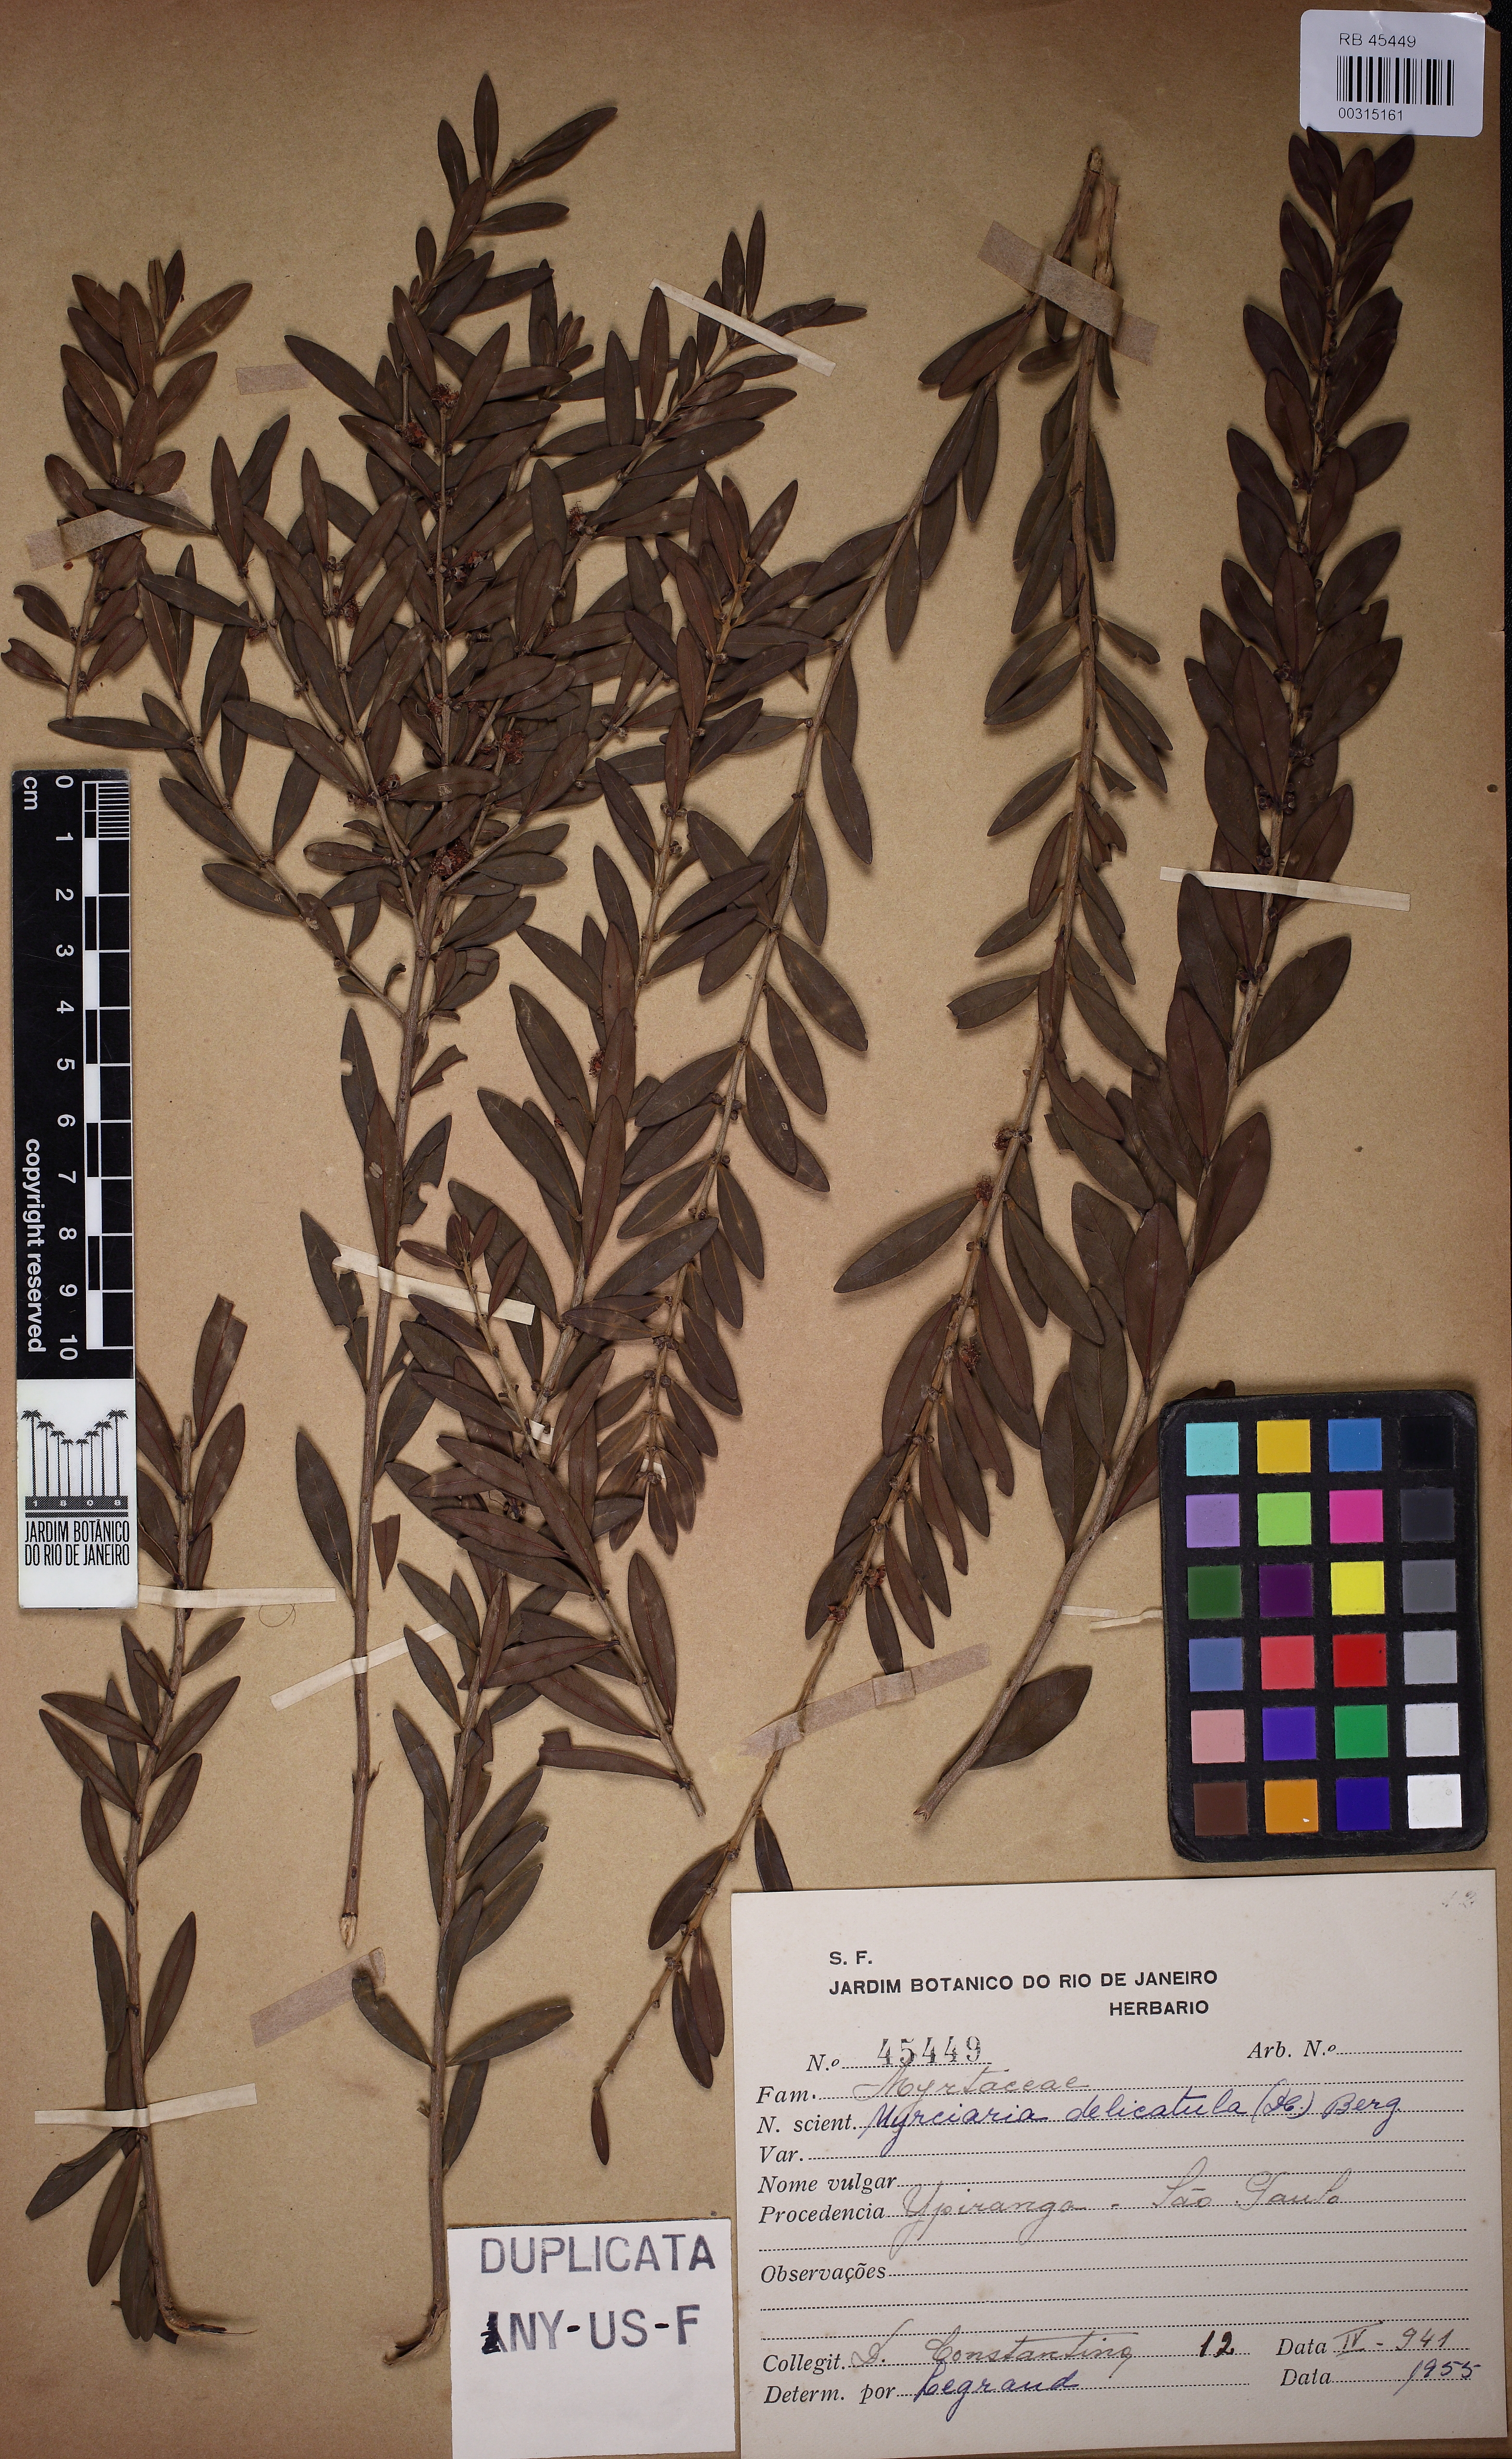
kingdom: Plantae
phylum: Tracheophyta
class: Magnoliopsida
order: Myrtales
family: Myrtaceae
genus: Myrciaria
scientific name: Myrciaria delicatula
